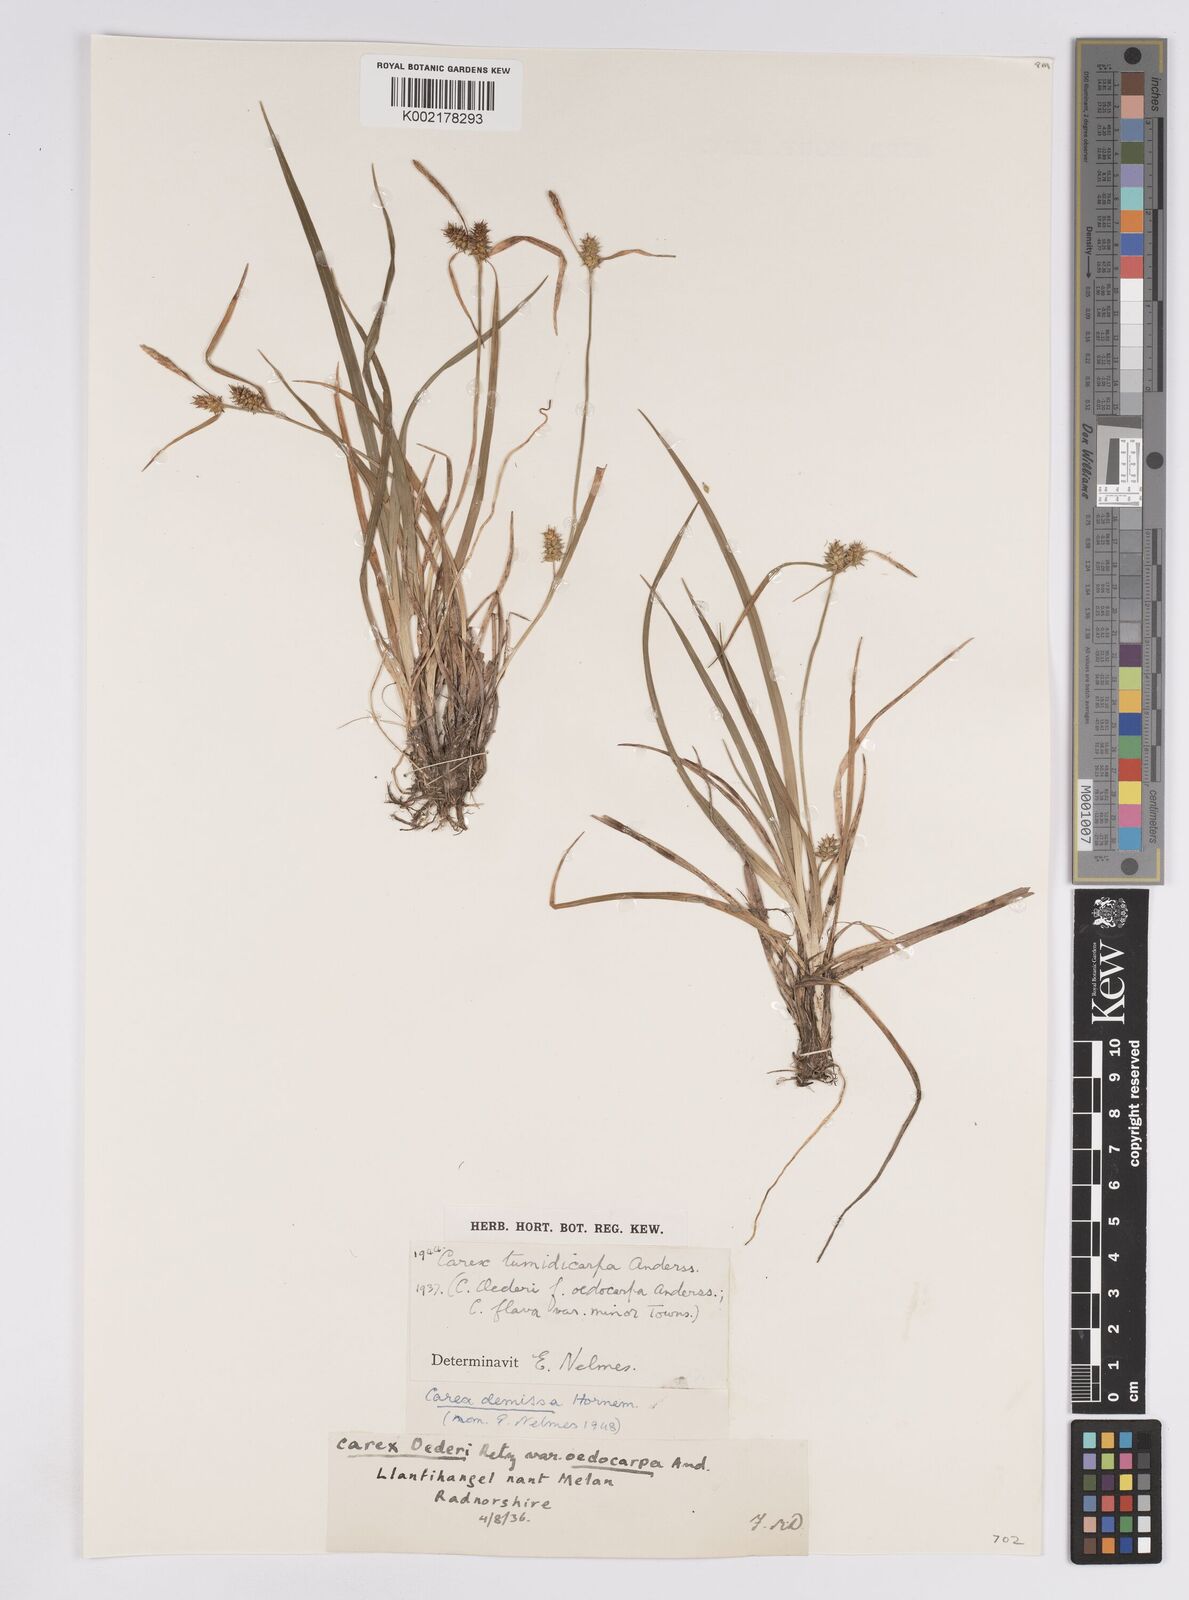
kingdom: Plantae
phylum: Tracheophyta
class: Liliopsida
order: Poales
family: Cyperaceae
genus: Carex
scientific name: Carex demissa
